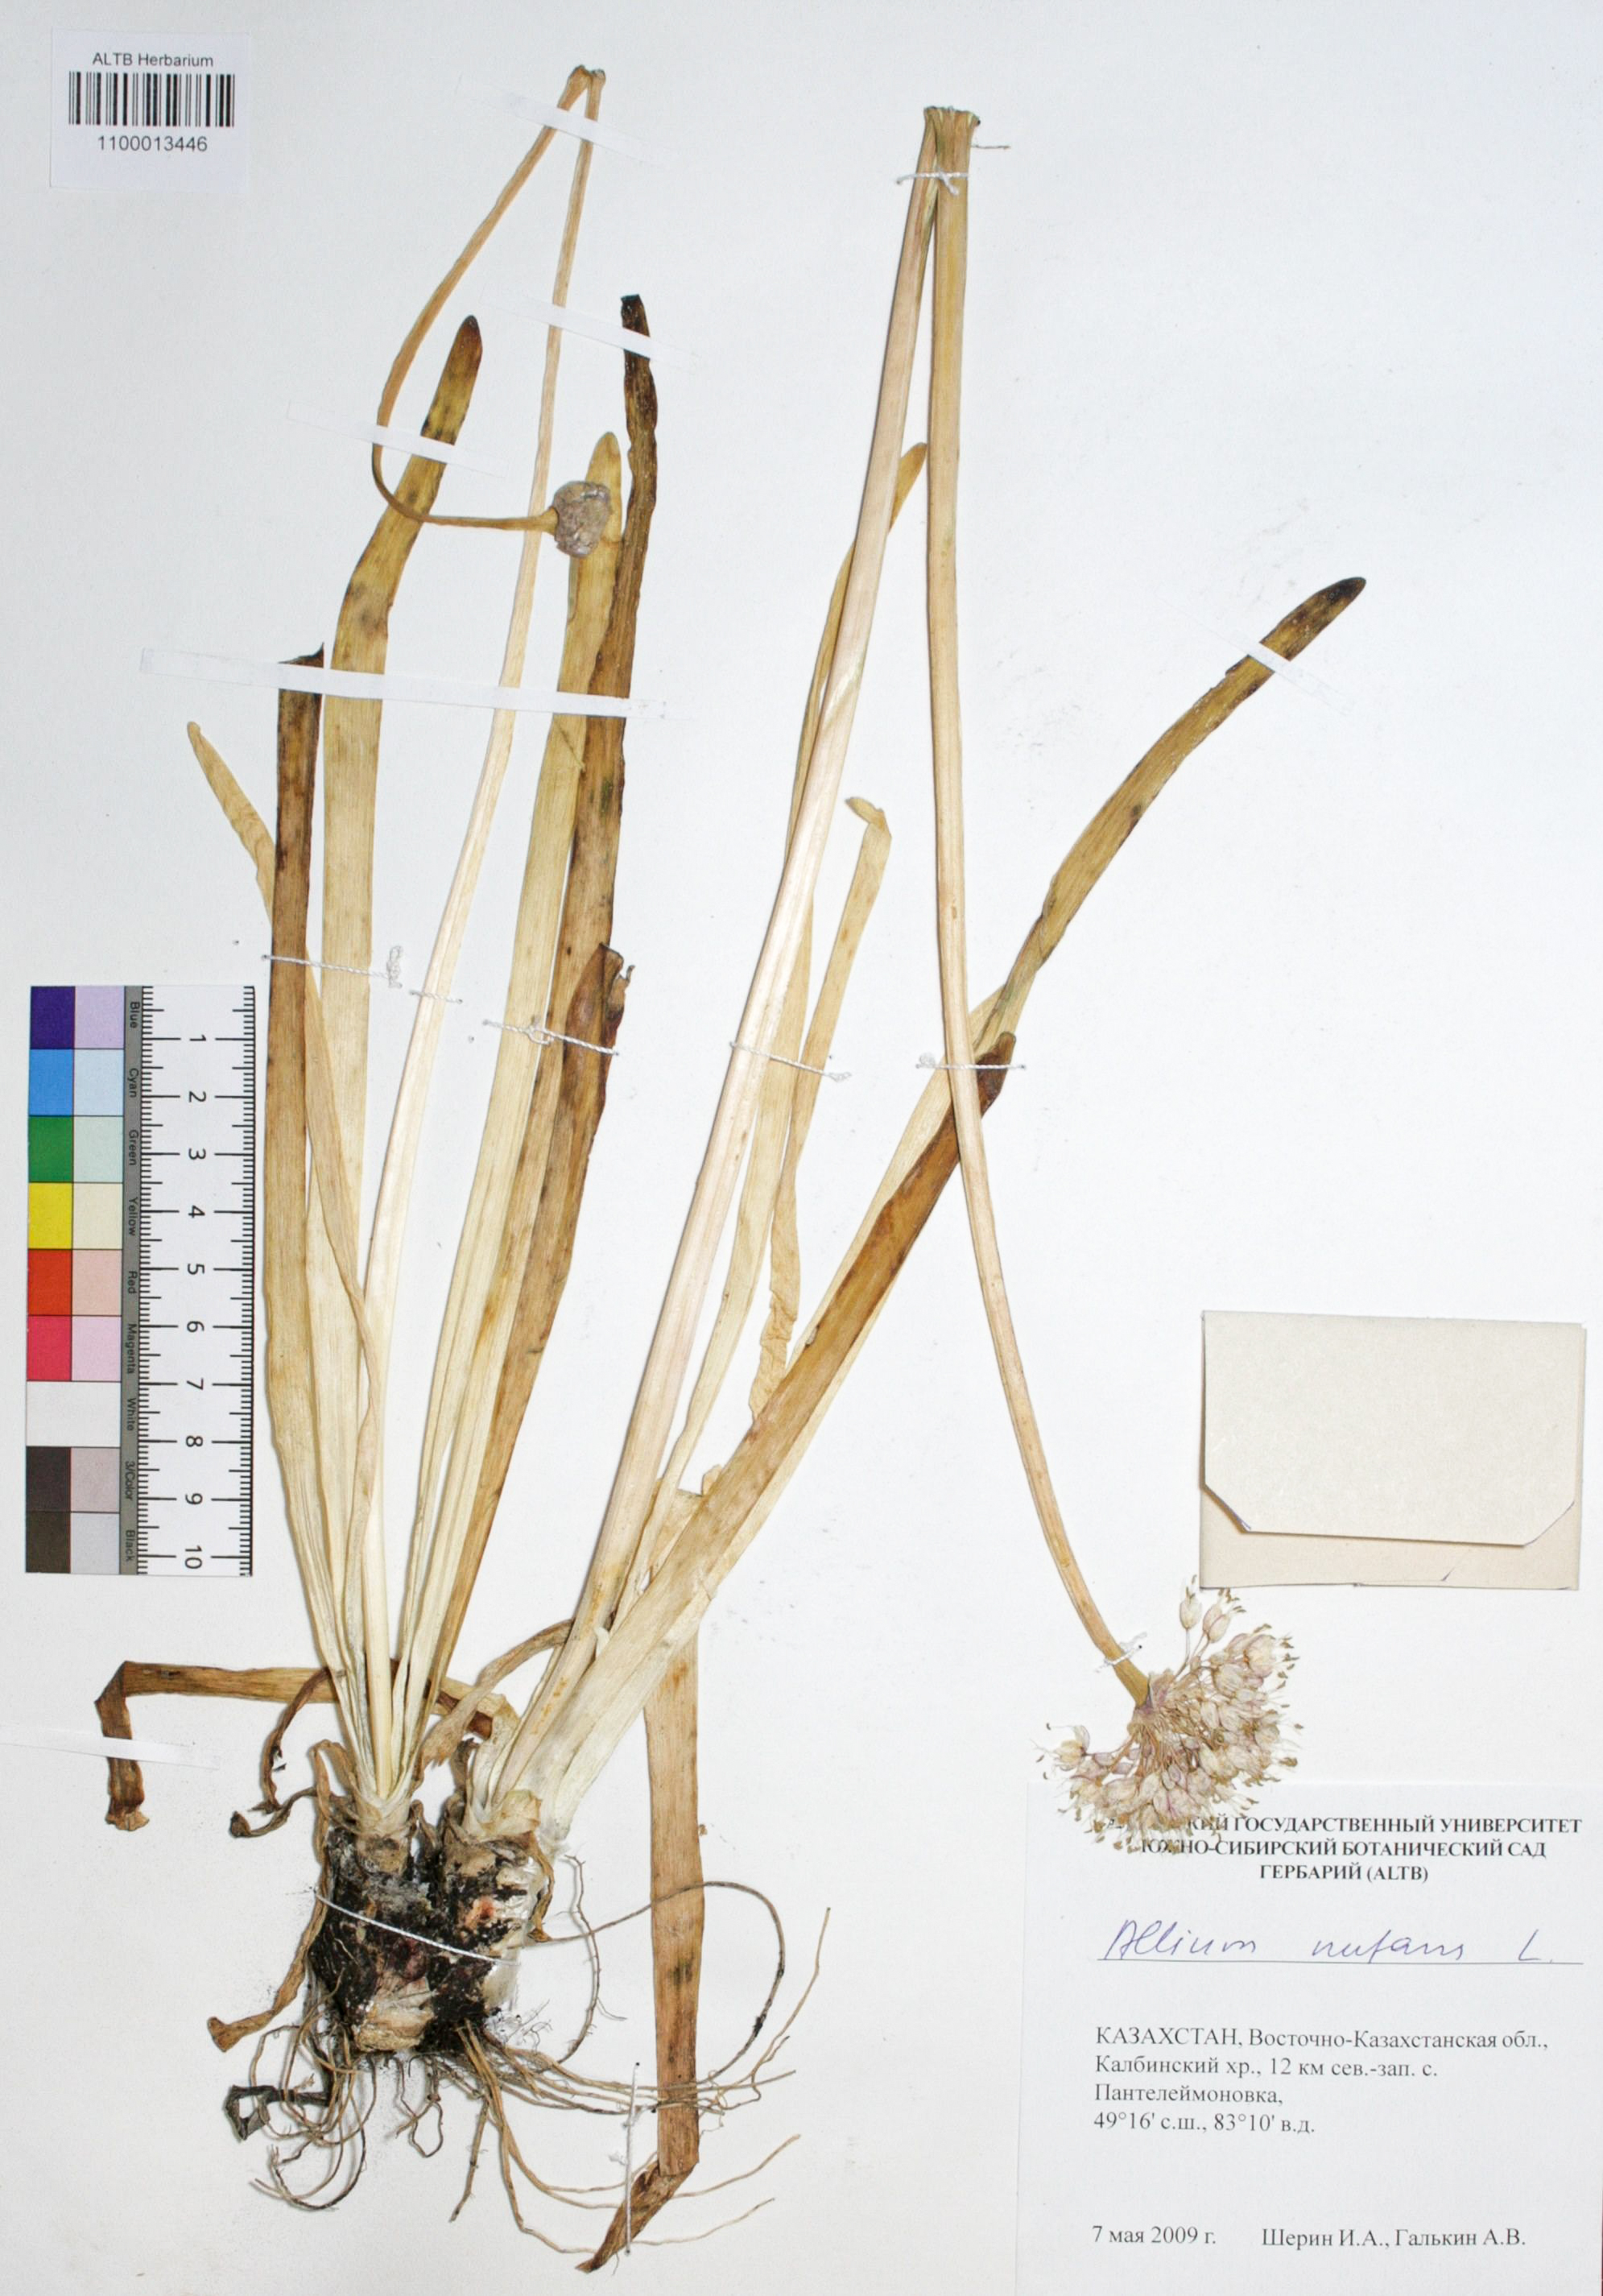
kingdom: Plantae
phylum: Tracheophyta
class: Liliopsida
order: Asparagales
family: Amaryllidaceae
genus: Allium
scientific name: Allium nutans
